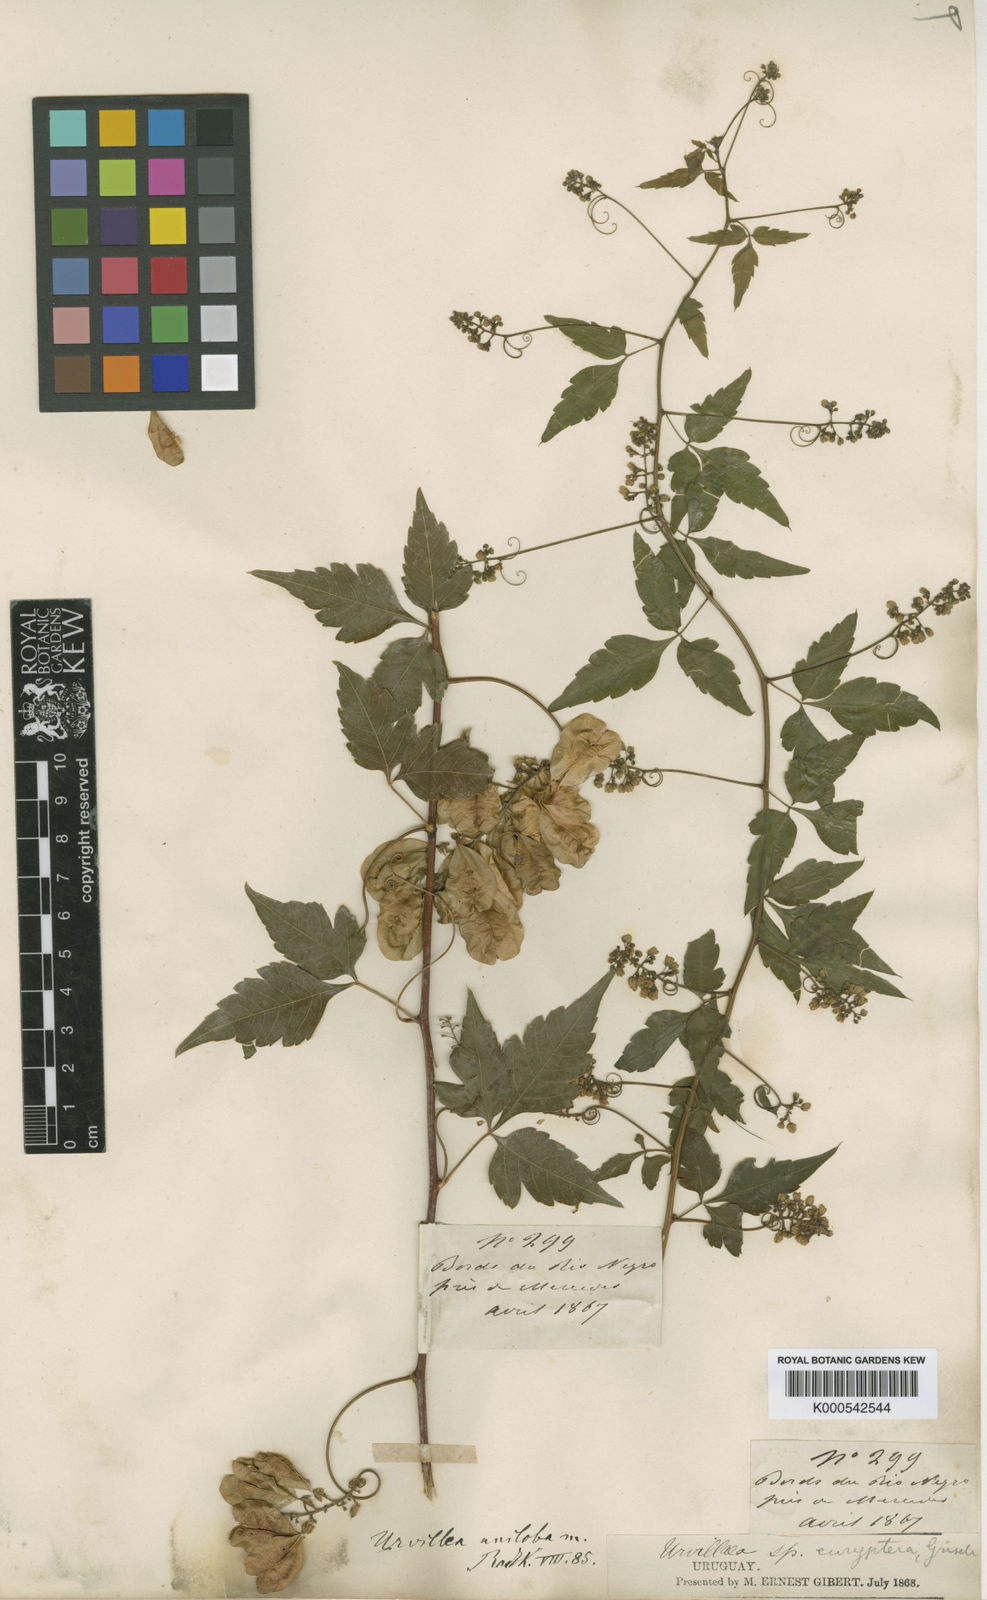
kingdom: Plantae
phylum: Tracheophyta
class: Magnoliopsida
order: Sapindales
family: Sapindaceae
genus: Urvillea
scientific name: Urvillea uniloba
